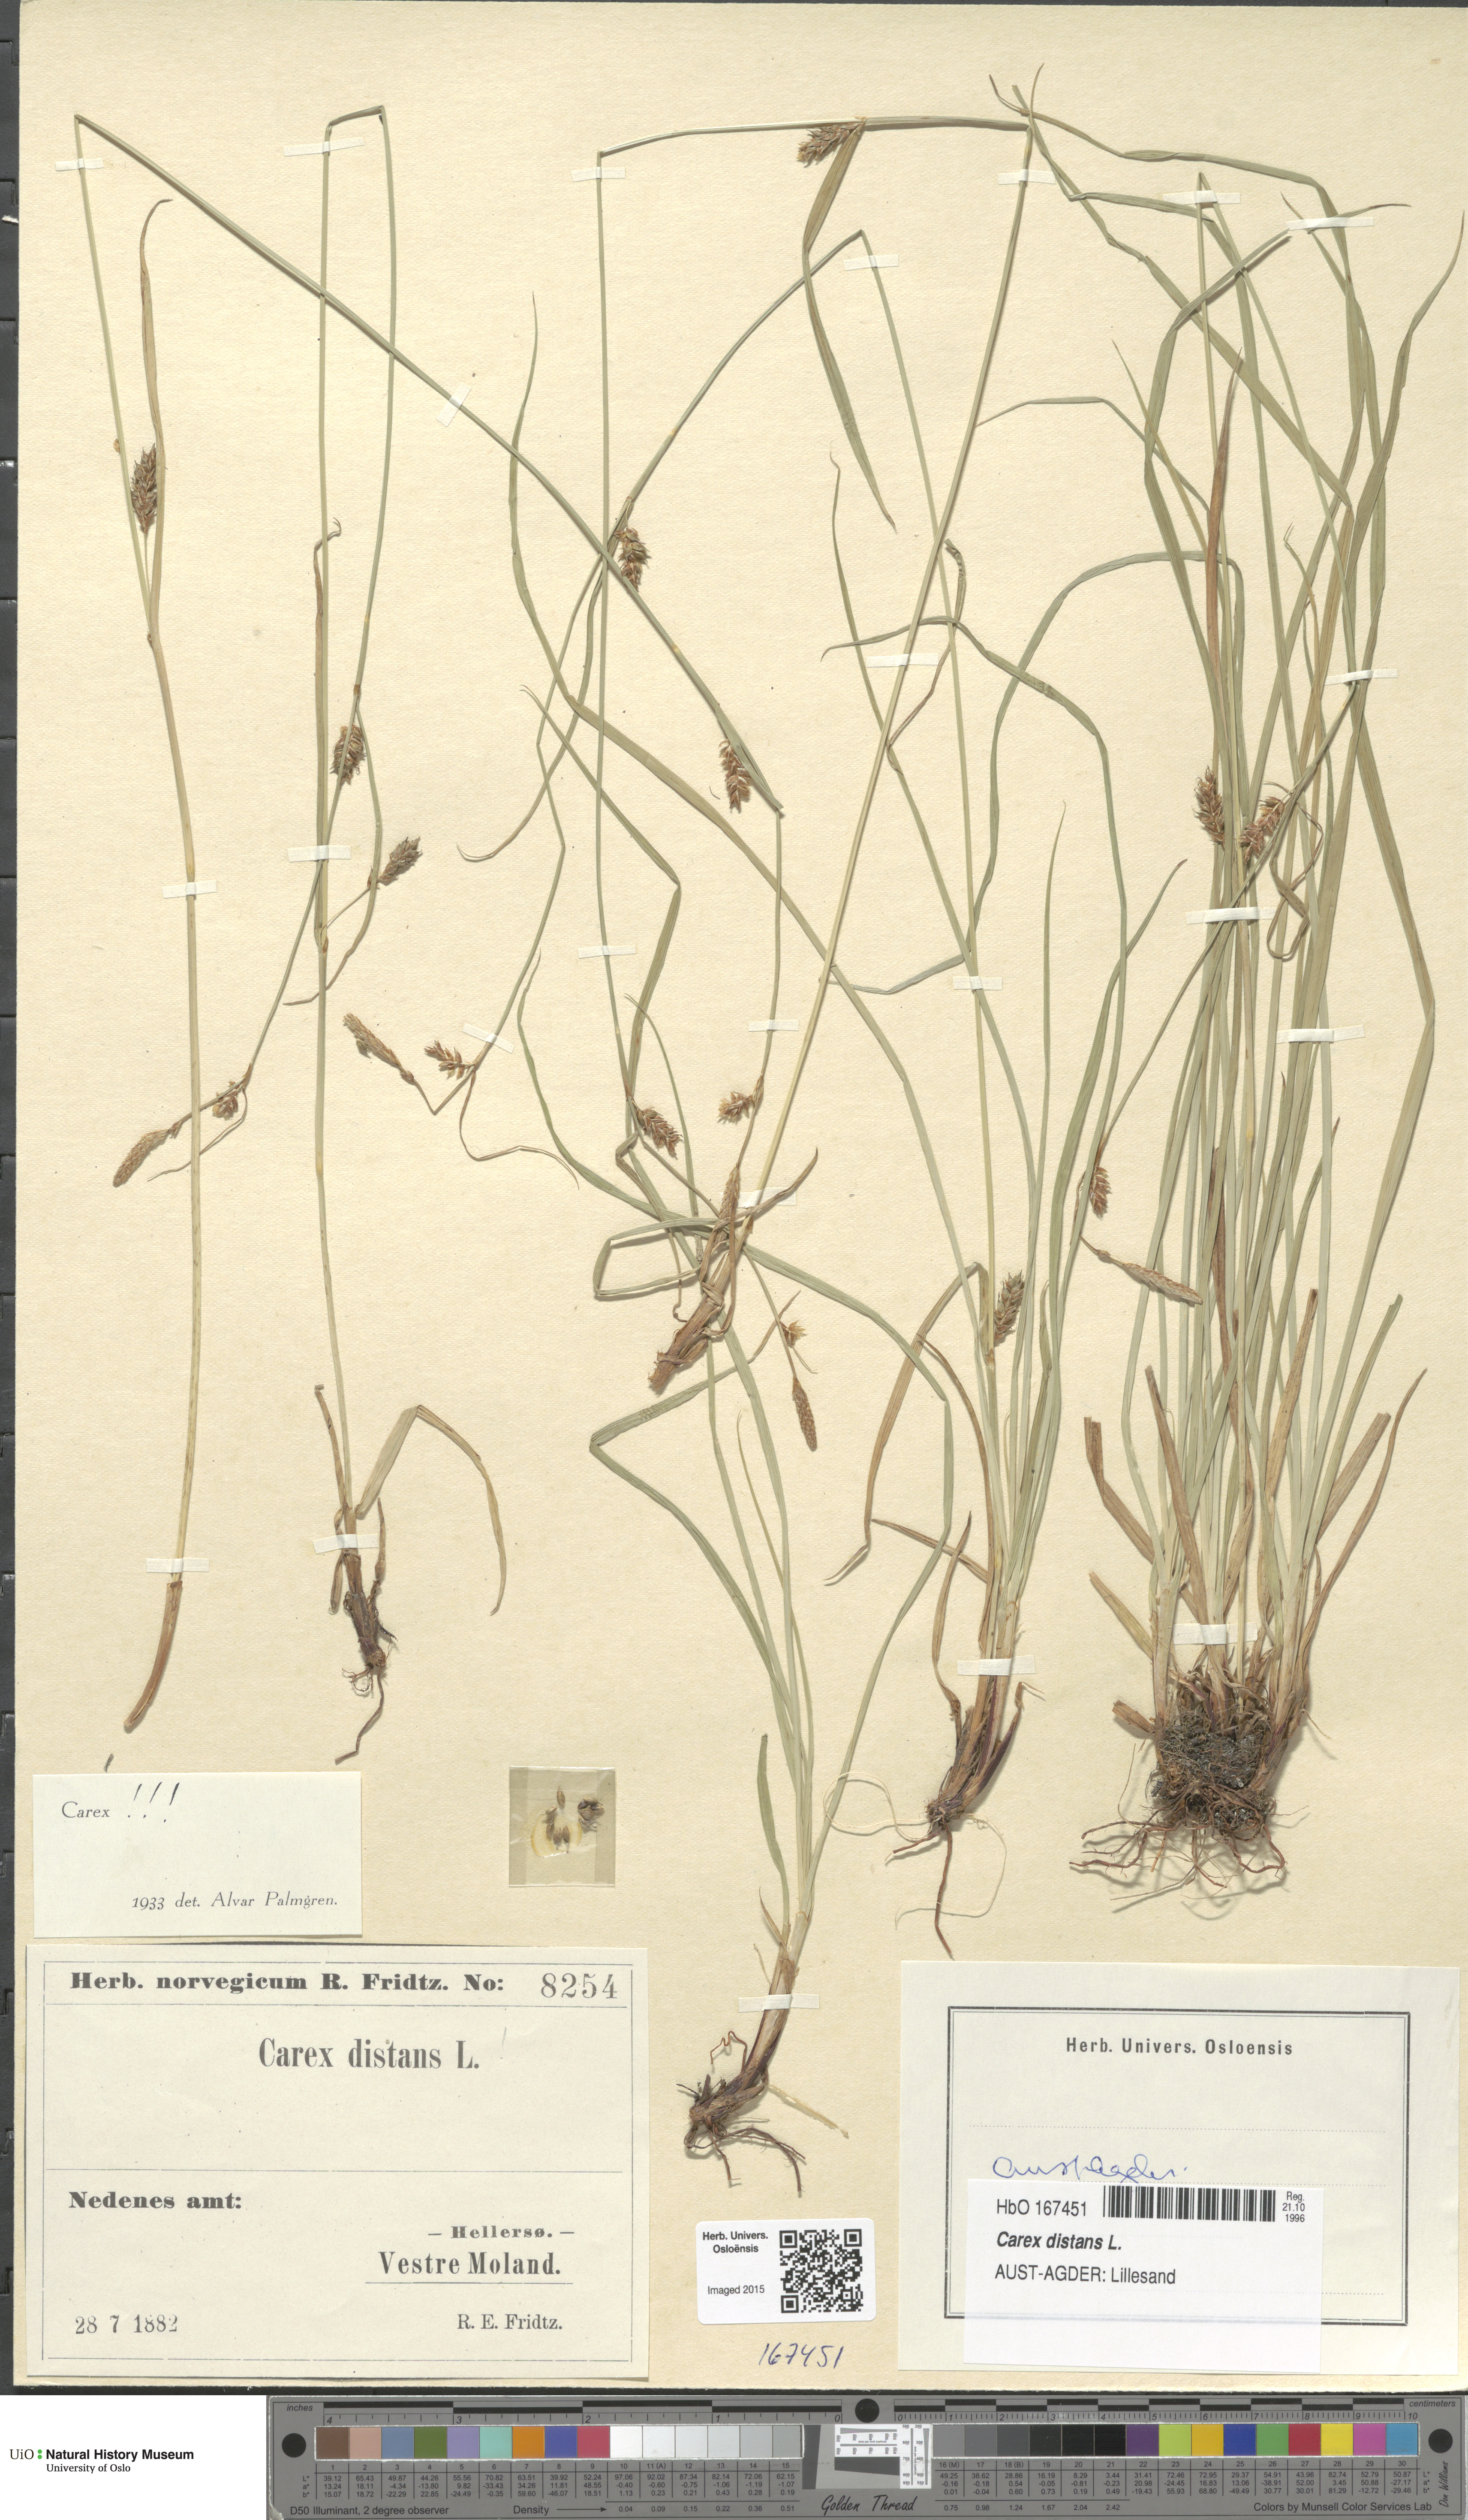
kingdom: Plantae
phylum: Tracheophyta
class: Liliopsida
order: Poales
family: Cyperaceae
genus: Carex
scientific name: Carex distans
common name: Distant sedge
